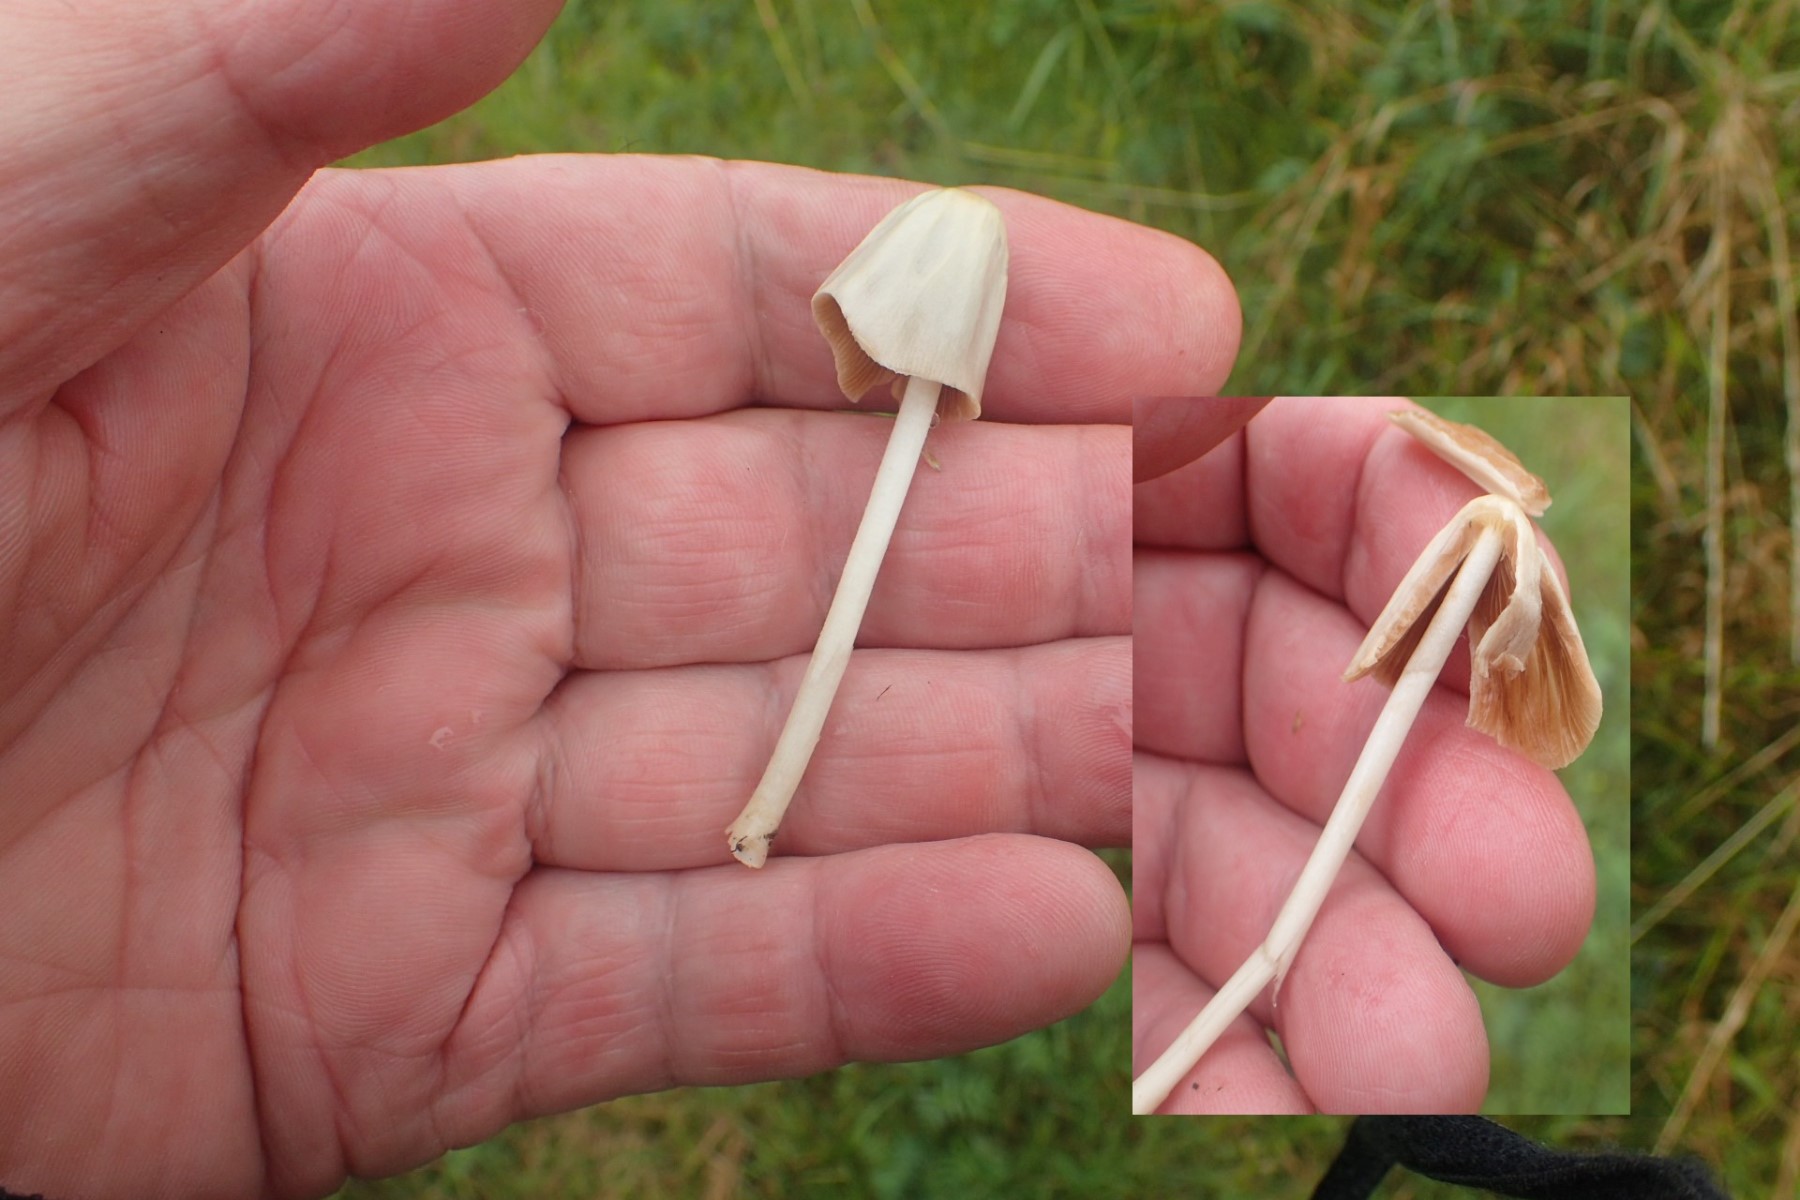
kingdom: Fungi
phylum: Basidiomycota
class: Agaricomycetes
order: Agaricales
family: Bolbitiaceae
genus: Conocybe
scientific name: Conocybe apala
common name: mælkehvid keglehat
